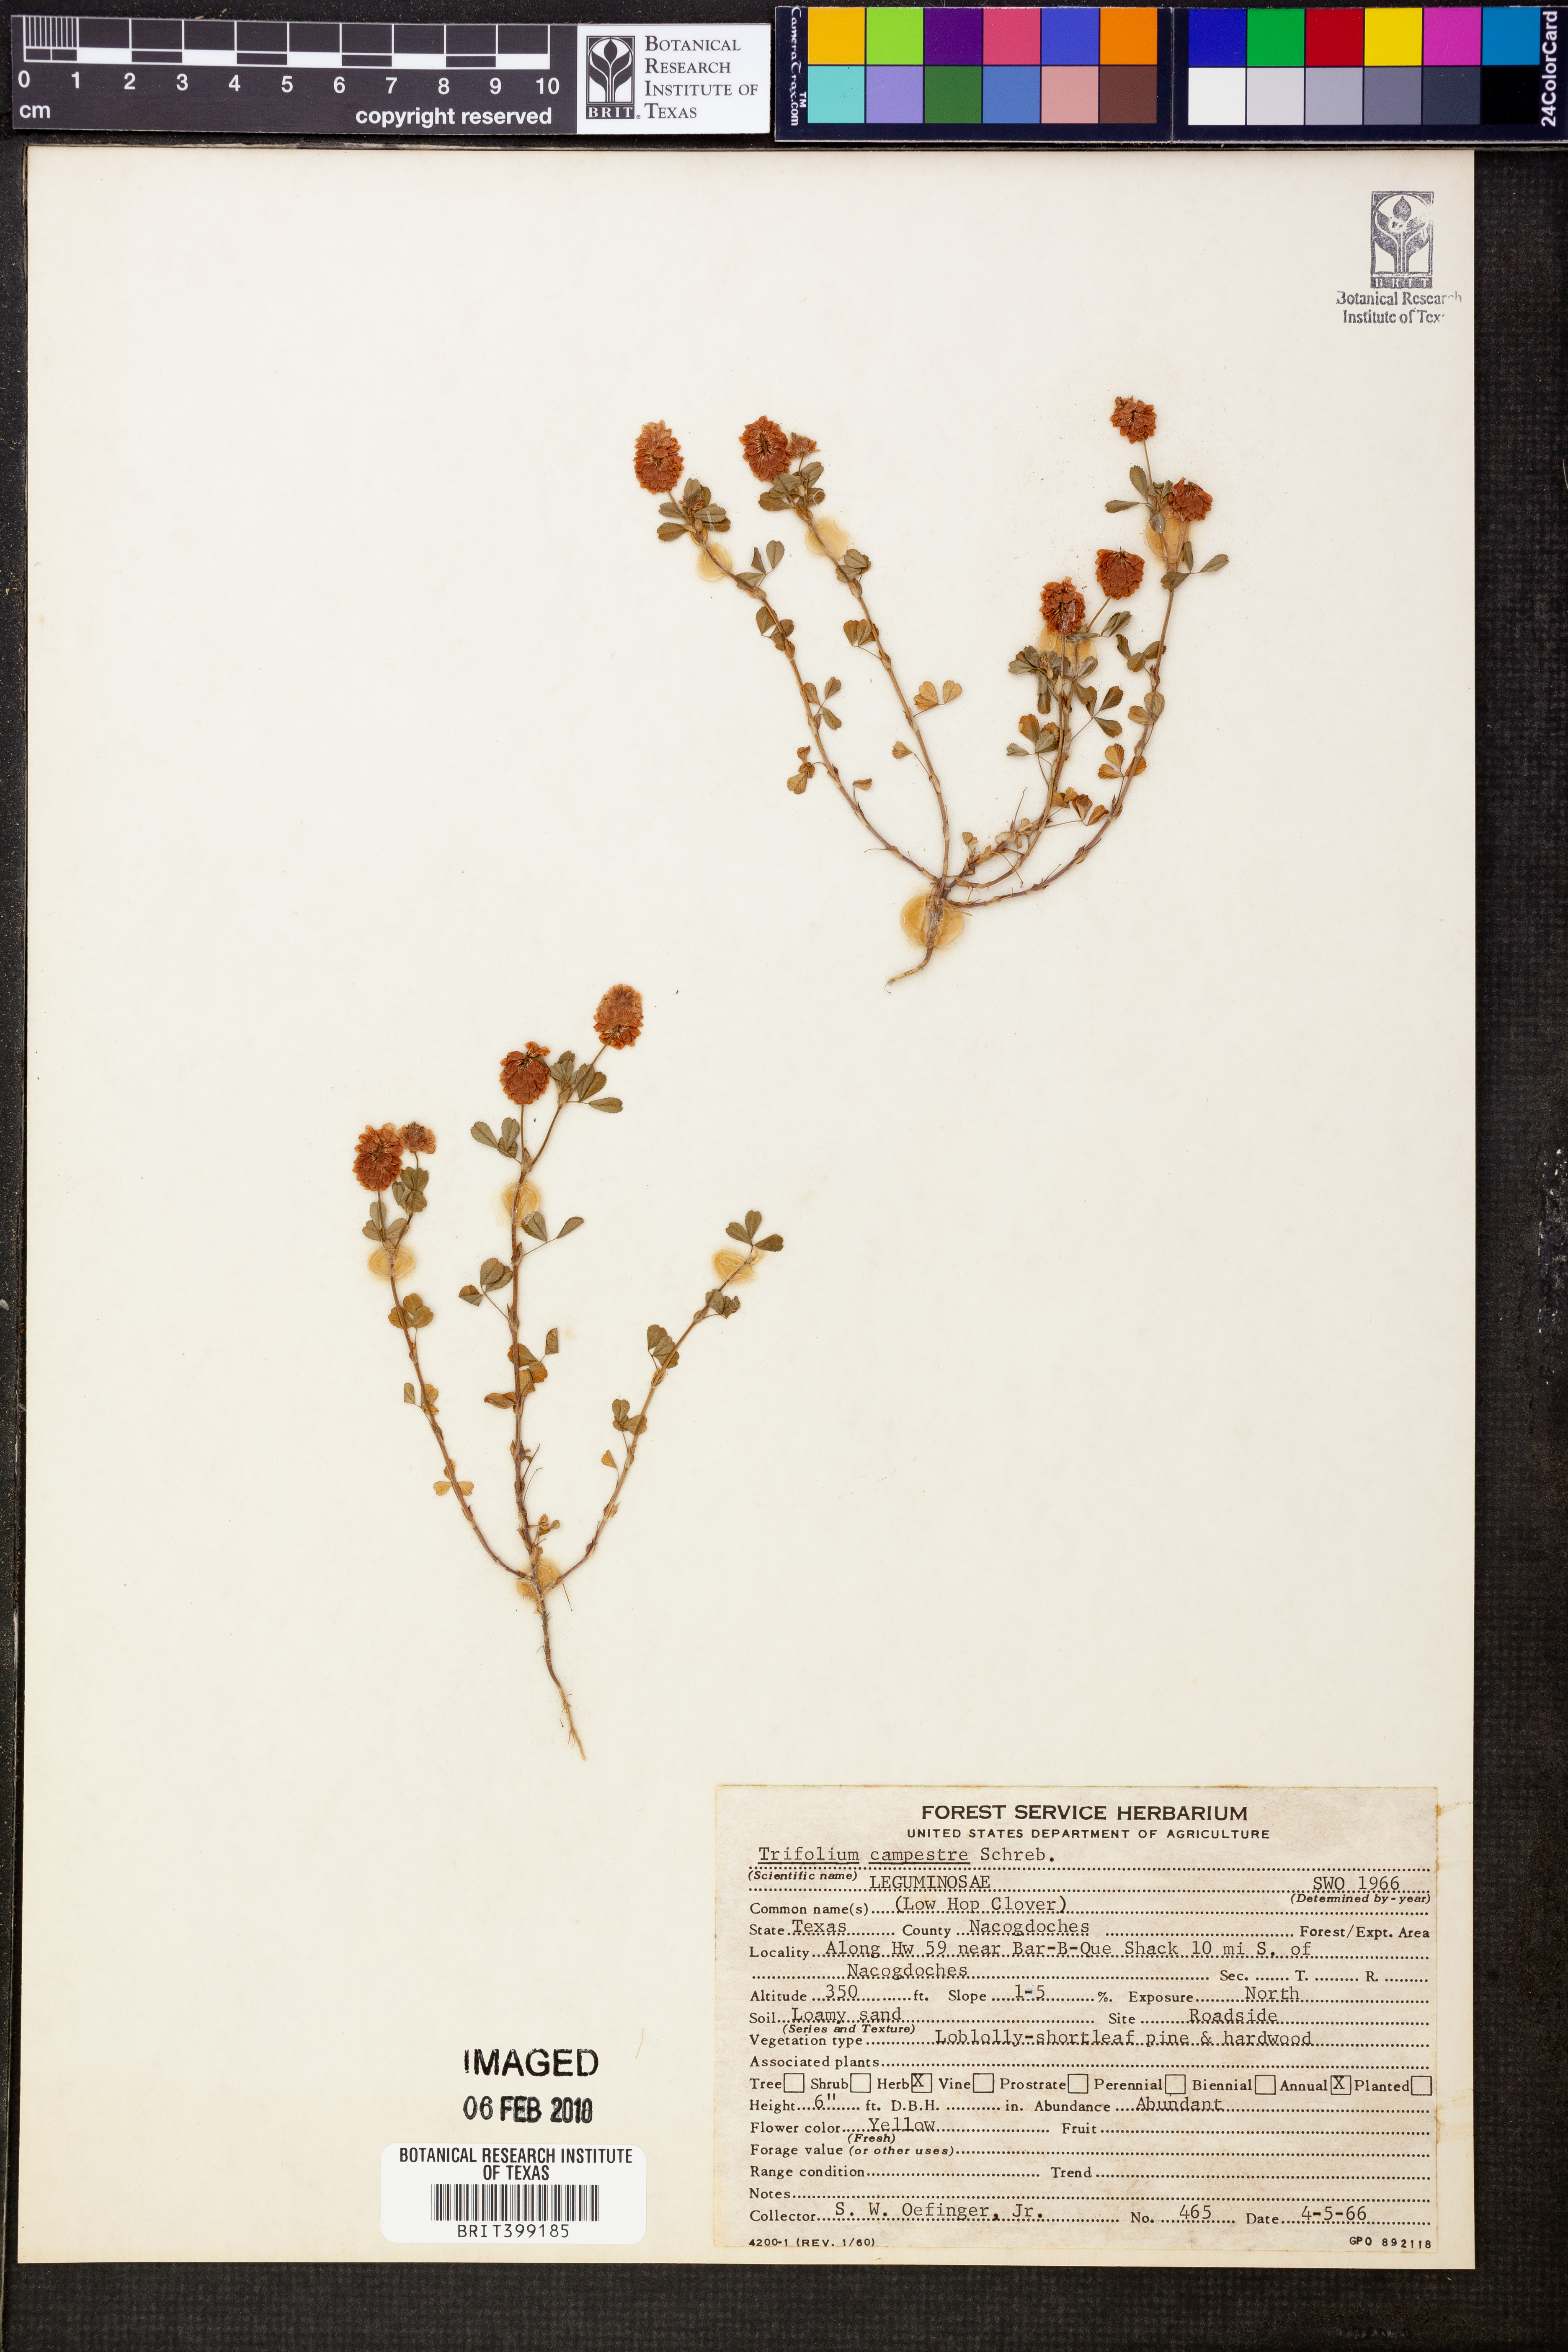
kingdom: Plantae
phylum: Tracheophyta
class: Magnoliopsida
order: Fabales
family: Fabaceae
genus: Trifolium
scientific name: Trifolium campestre
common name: Field clover
